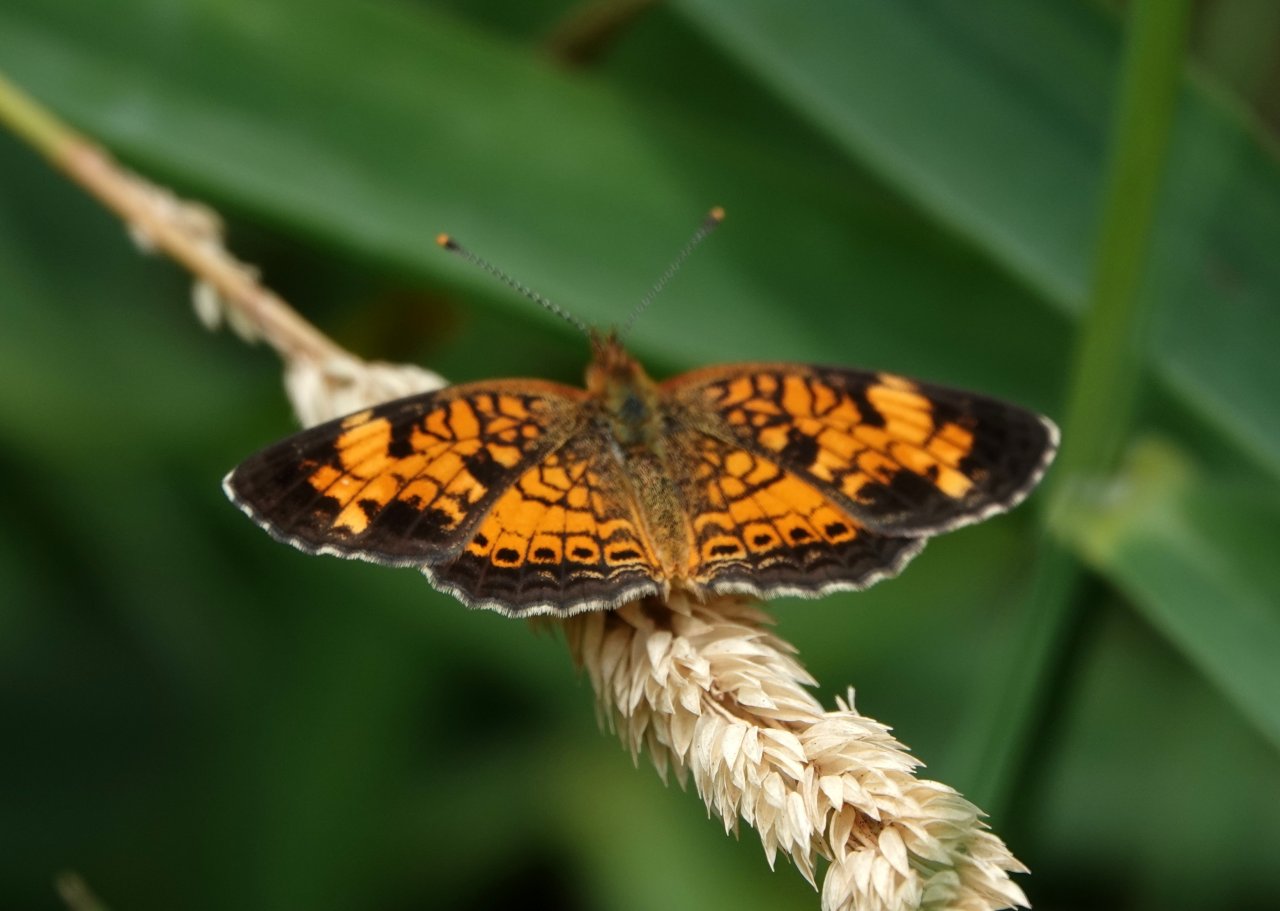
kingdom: Animalia
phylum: Arthropoda
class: Insecta
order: Lepidoptera
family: Nymphalidae
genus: Phyciodes
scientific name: Phyciodes tharos
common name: Pearl Crescent
